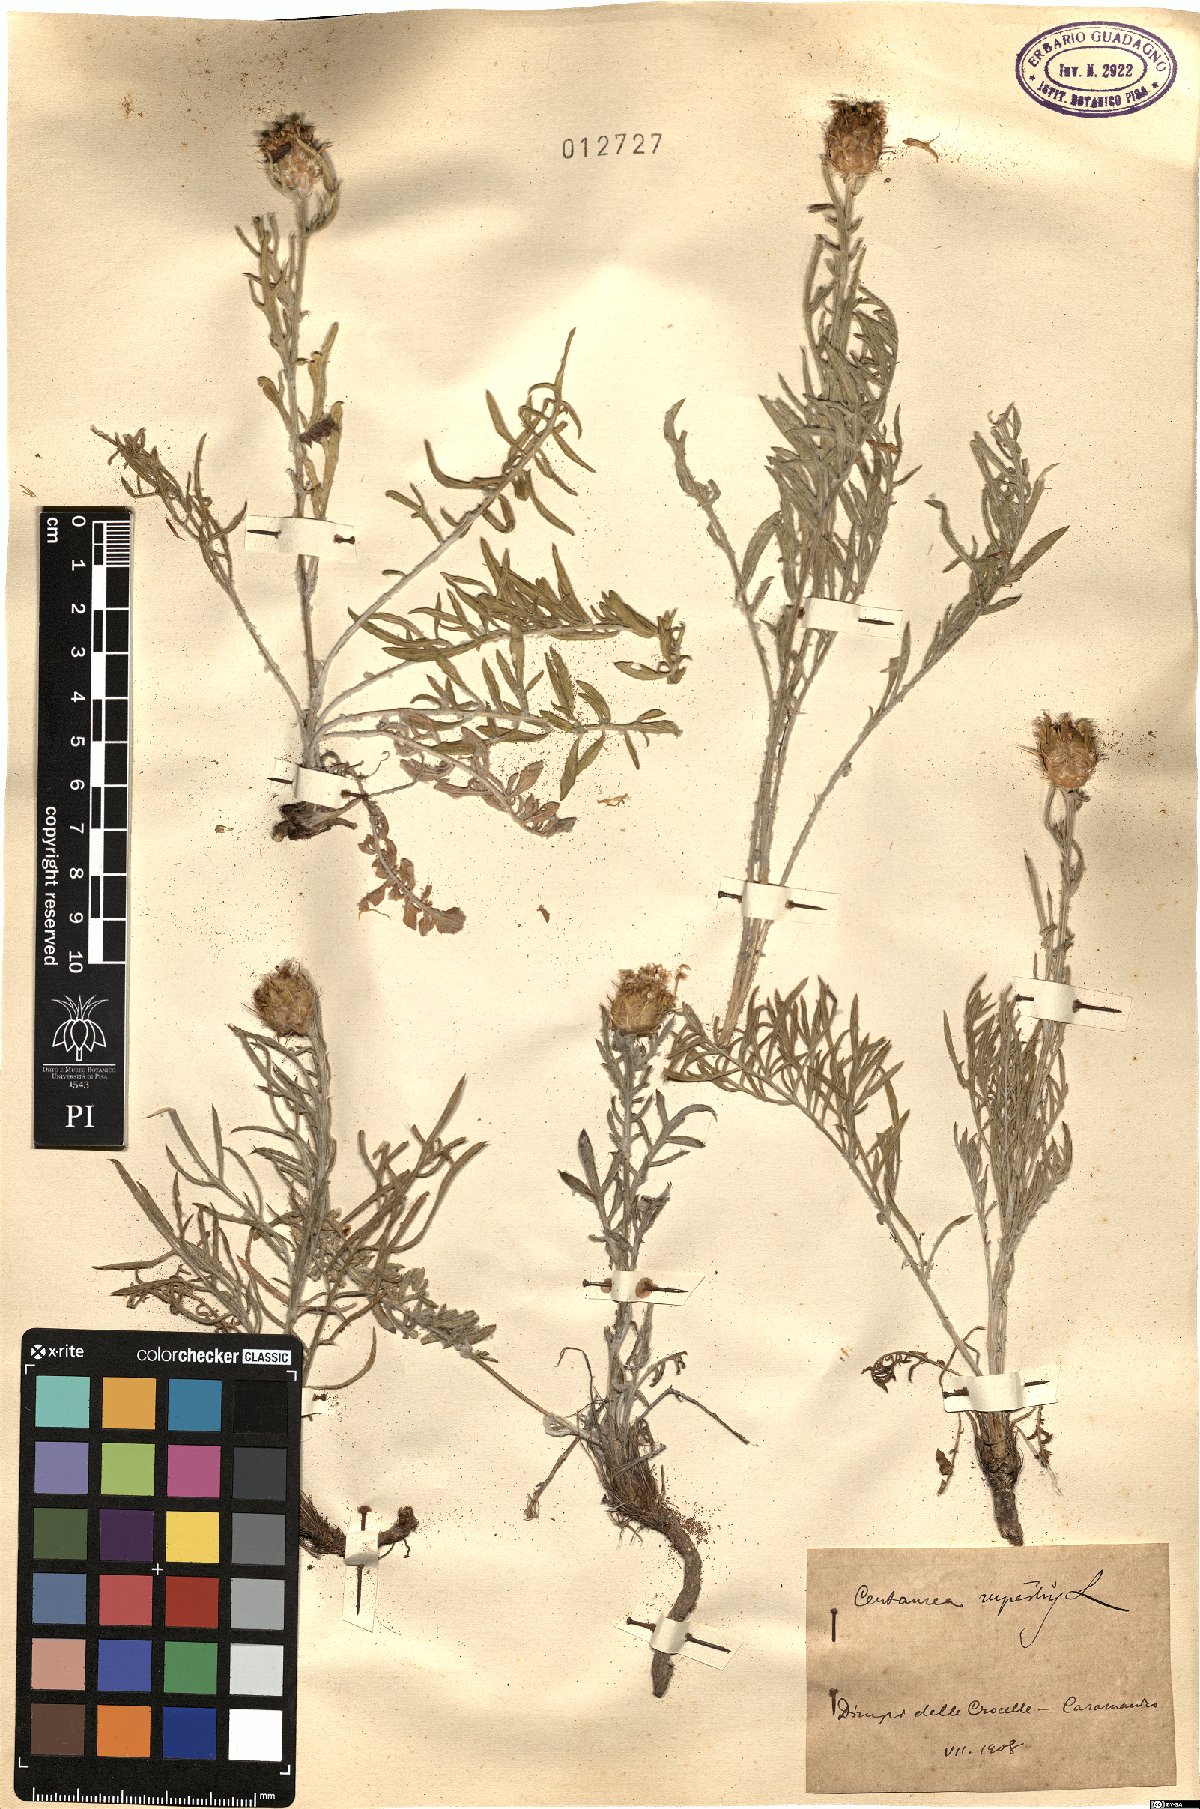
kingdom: Plantae
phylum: Tracheophyta
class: Magnoliopsida
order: Asterales
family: Asteraceae
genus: Centaurea
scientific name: Centaurea rupestris
